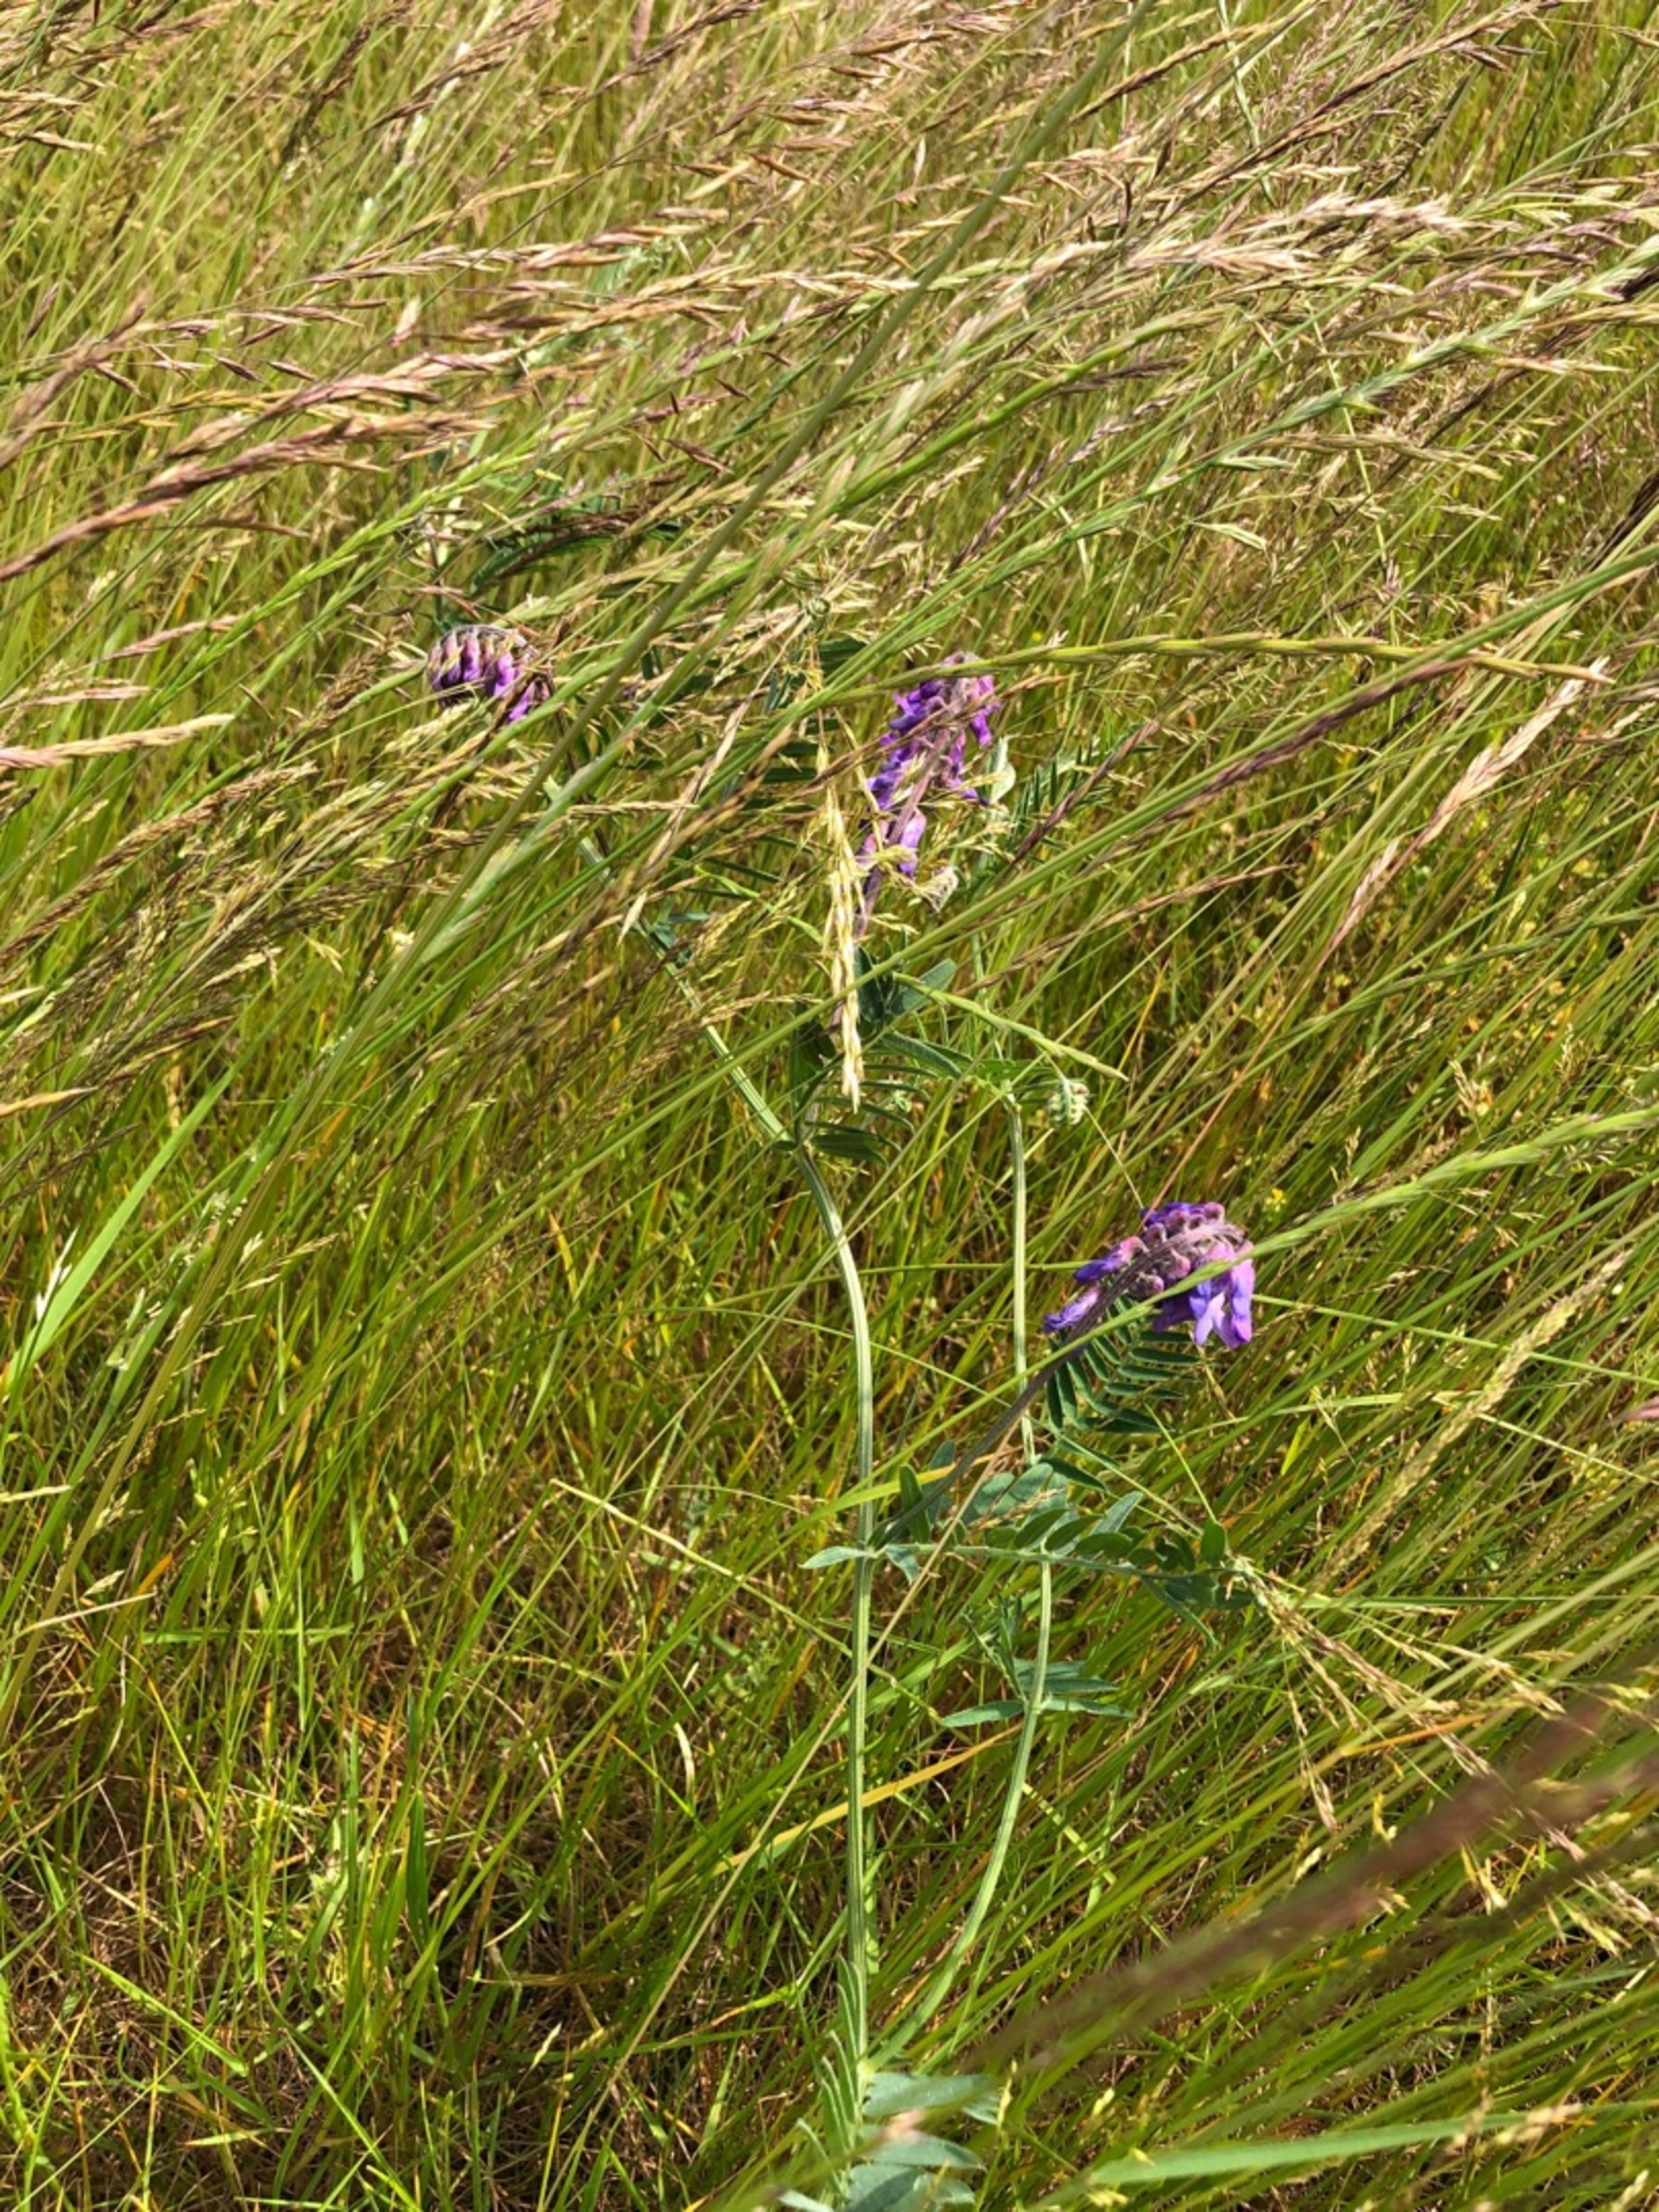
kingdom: Plantae
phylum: Tracheophyta
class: Magnoliopsida
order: Fabales
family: Fabaceae
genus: Vicia
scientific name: Vicia cracca
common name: Muse-vikke
